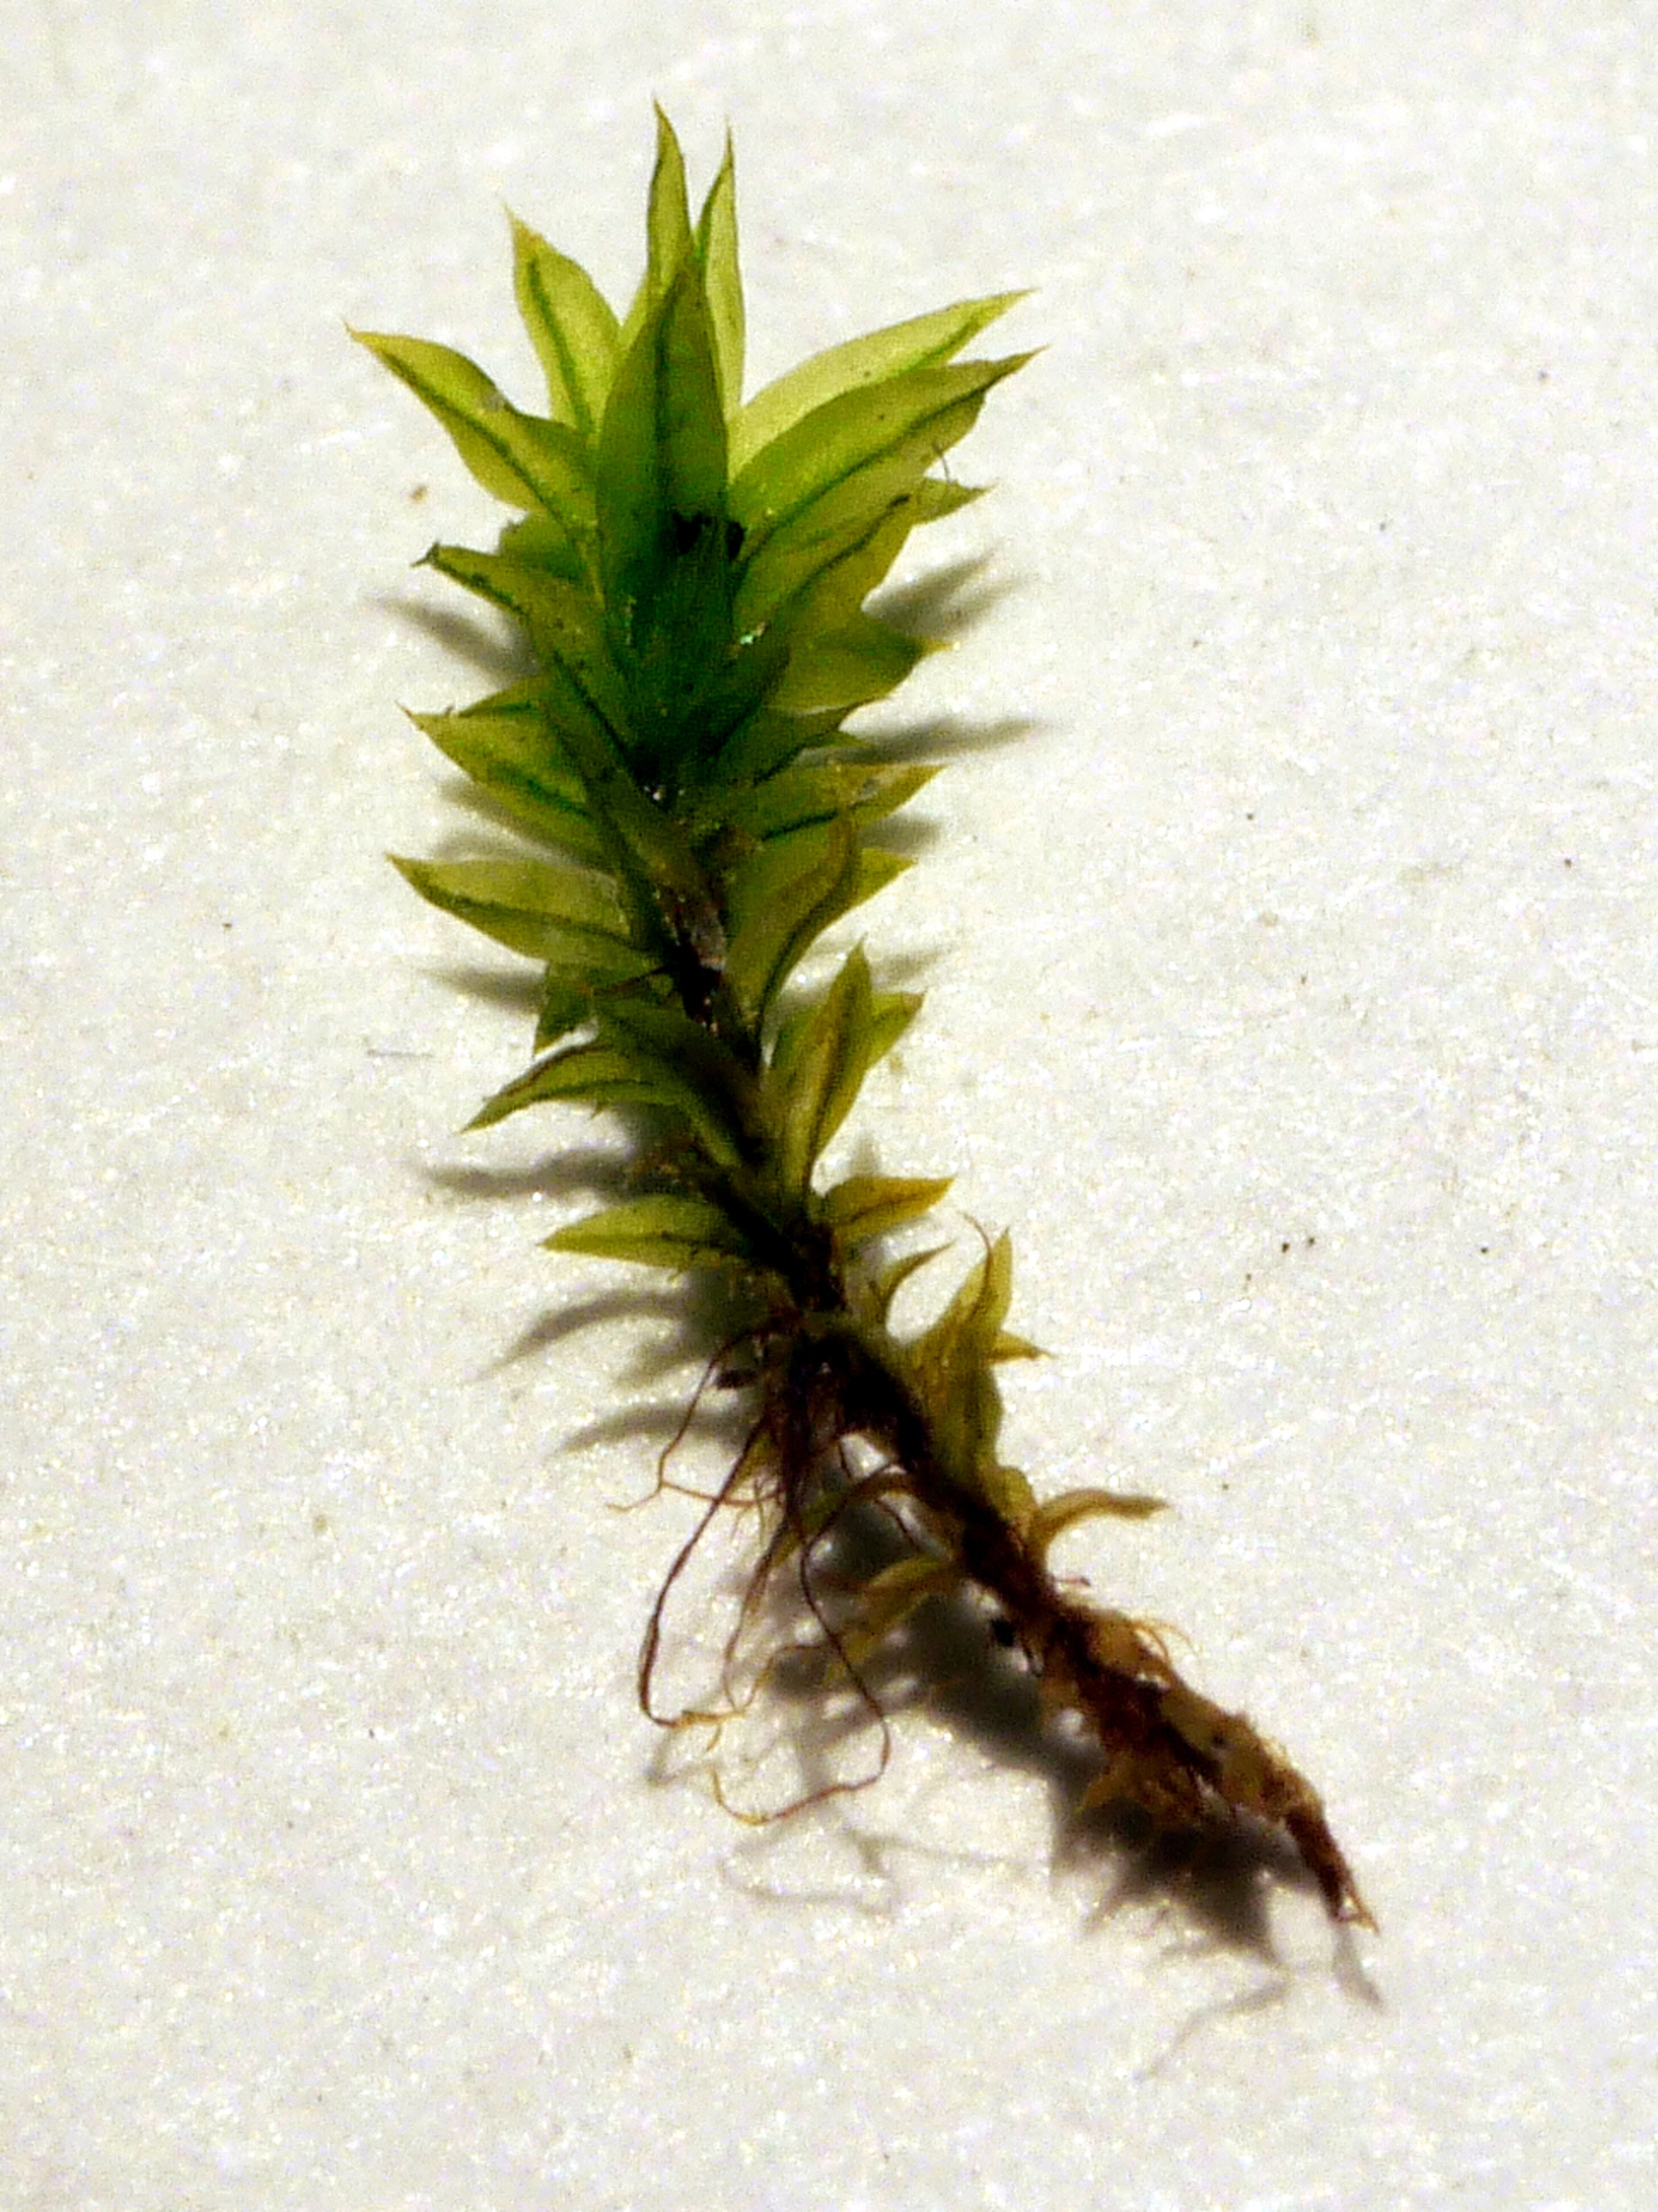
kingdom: Plantae
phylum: Bryophyta
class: Bryopsida
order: Orthotrichales
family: Orthotrichaceae
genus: Zygodon
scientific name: Zygodon conoideus
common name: Tand-køllemos
